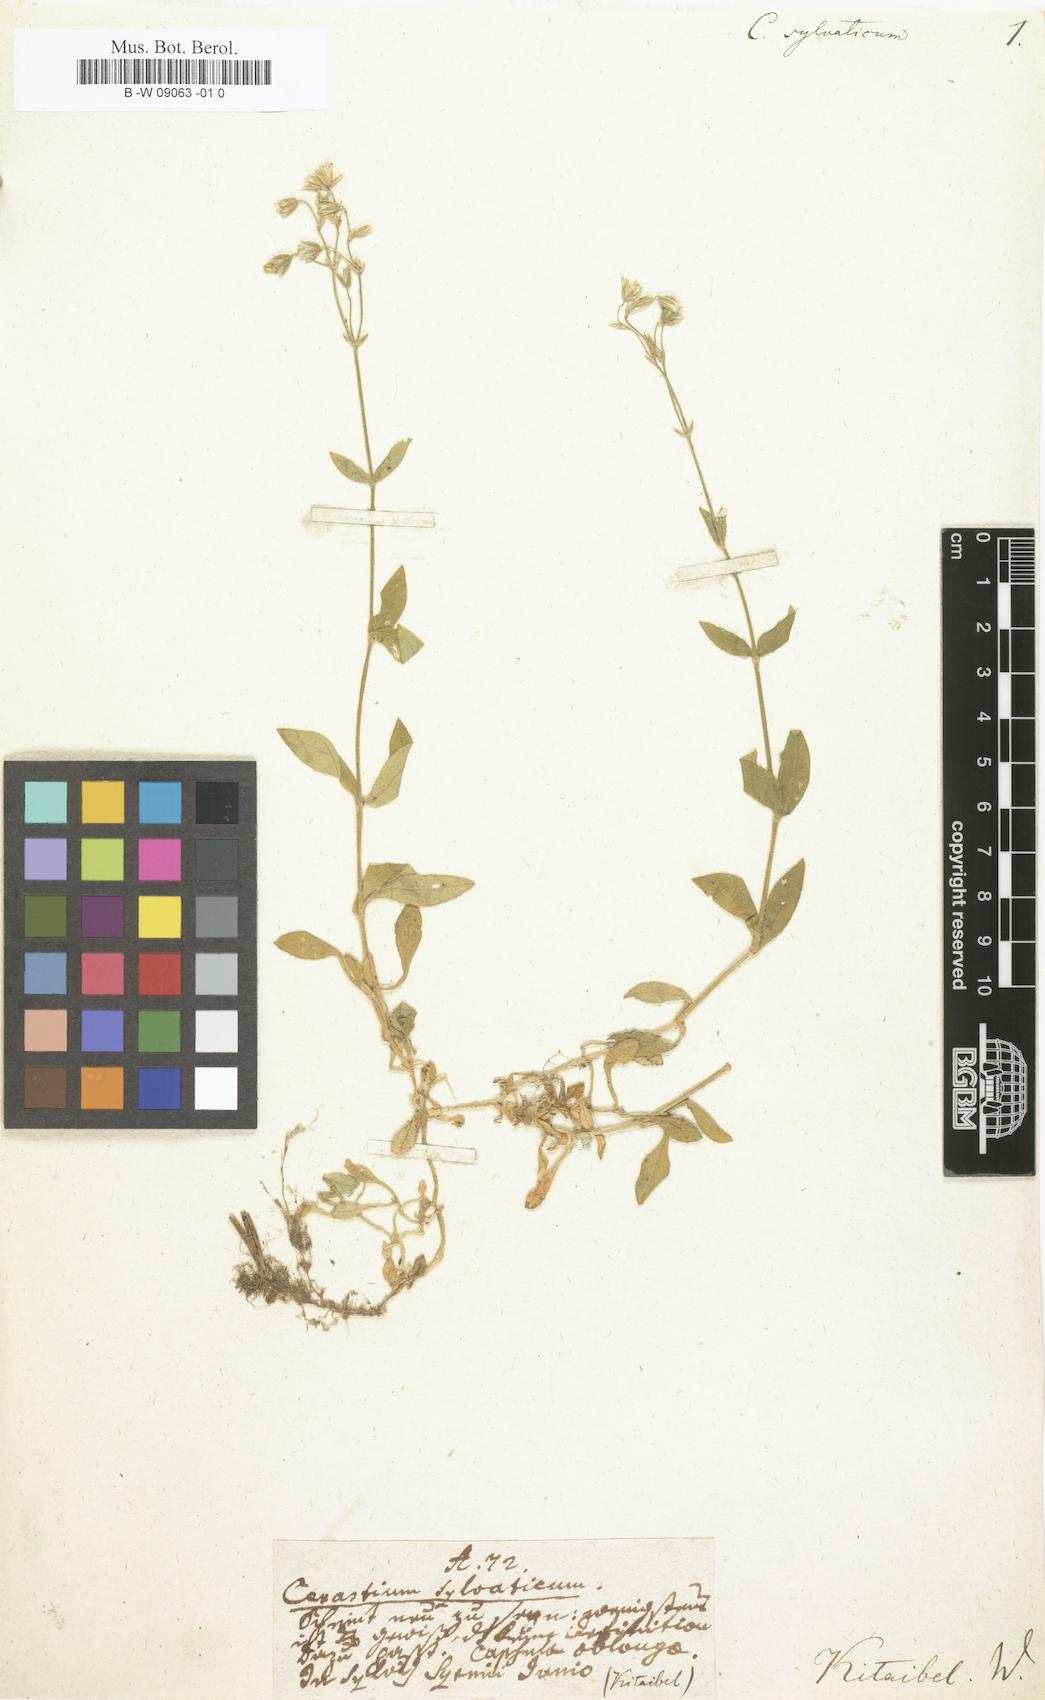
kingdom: Plantae
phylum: Tracheophyta
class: Magnoliopsida
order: Caryophyllales
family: Caryophyllaceae
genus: Cerastium
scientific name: Cerastium sylvaticum
